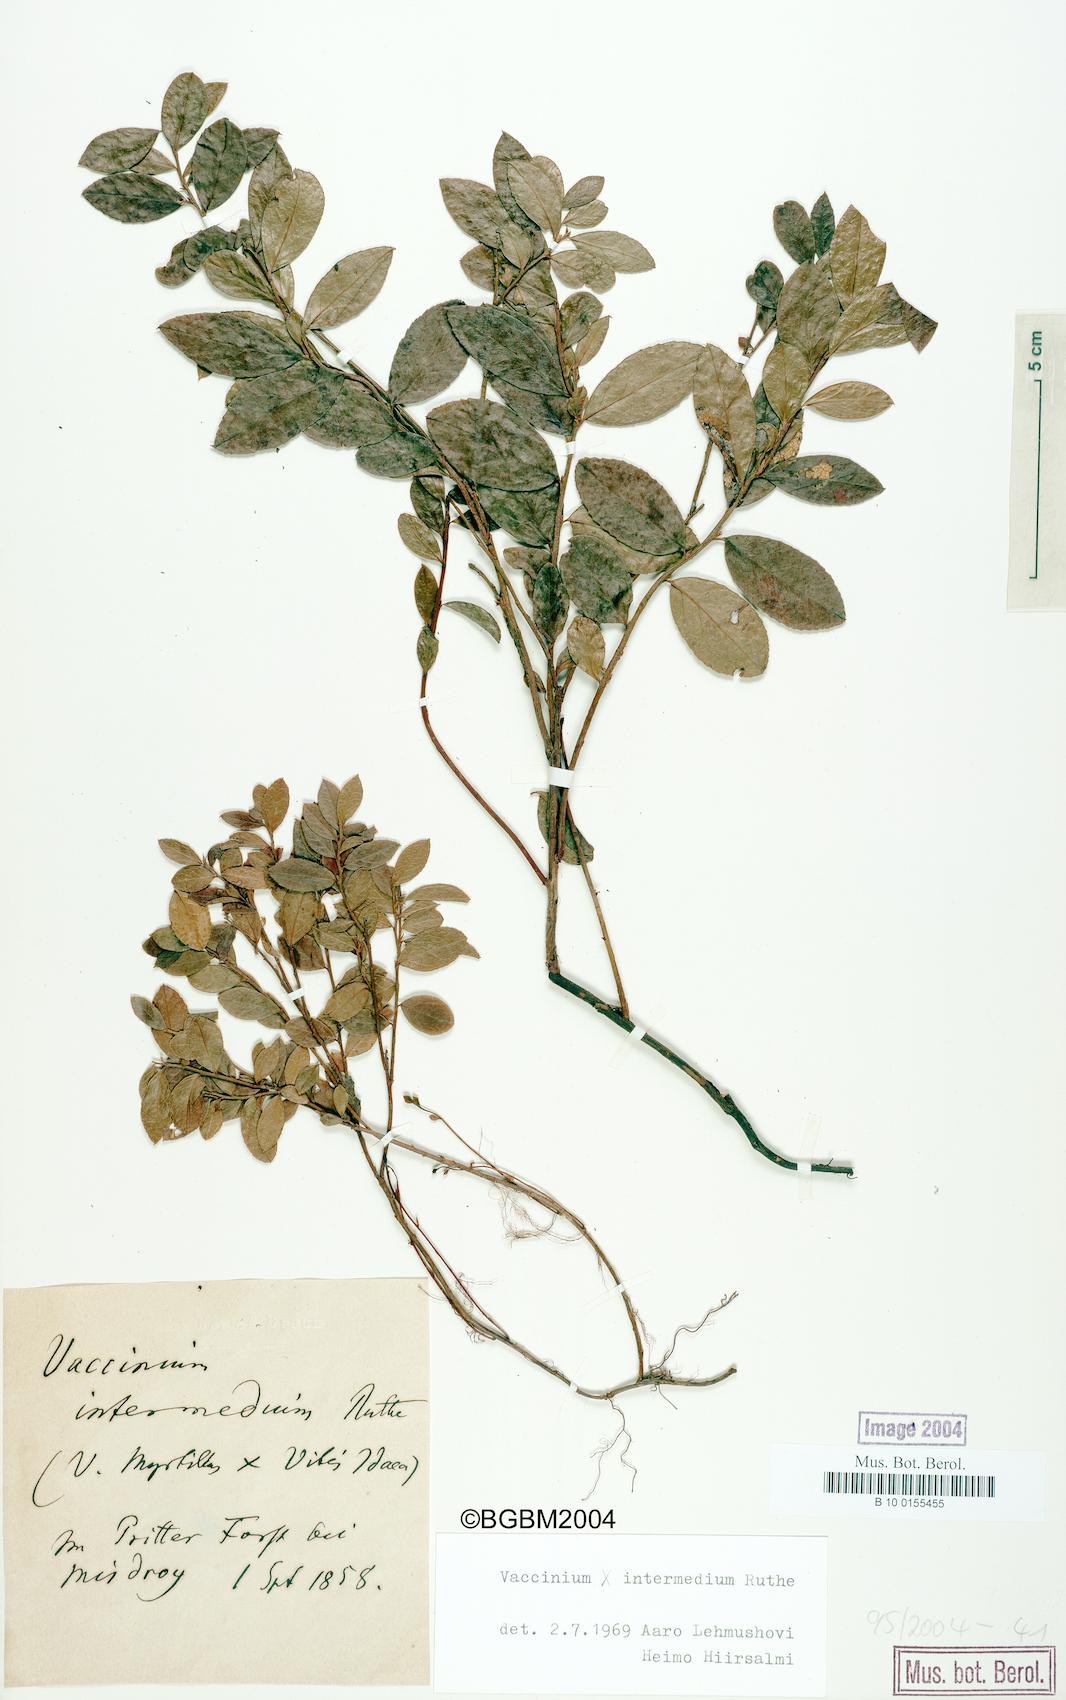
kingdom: Plantae
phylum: Tracheophyta
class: Magnoliopsida
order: Ericales
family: Ericaceae
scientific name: Ericaceae
